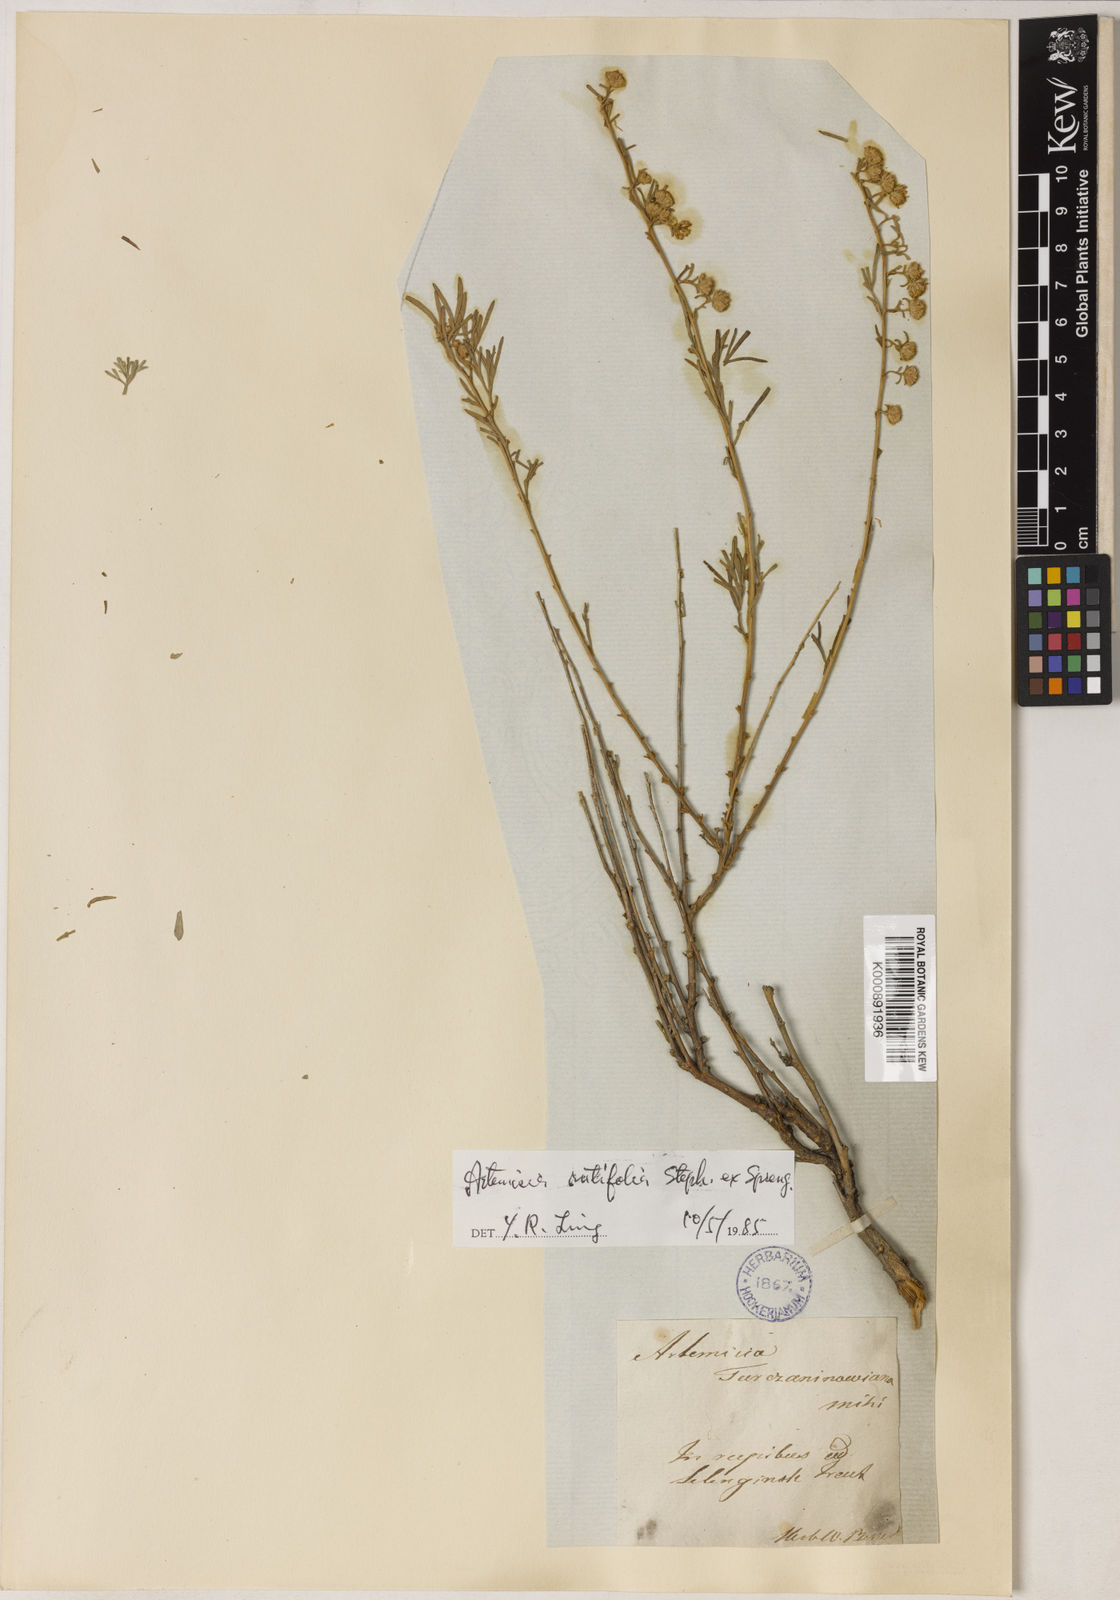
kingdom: Plantae
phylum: Tracheophyta
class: Magnoliopsida
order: Asterales
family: Asteraceae
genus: Artemisia
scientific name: Artemisia rutifolia
